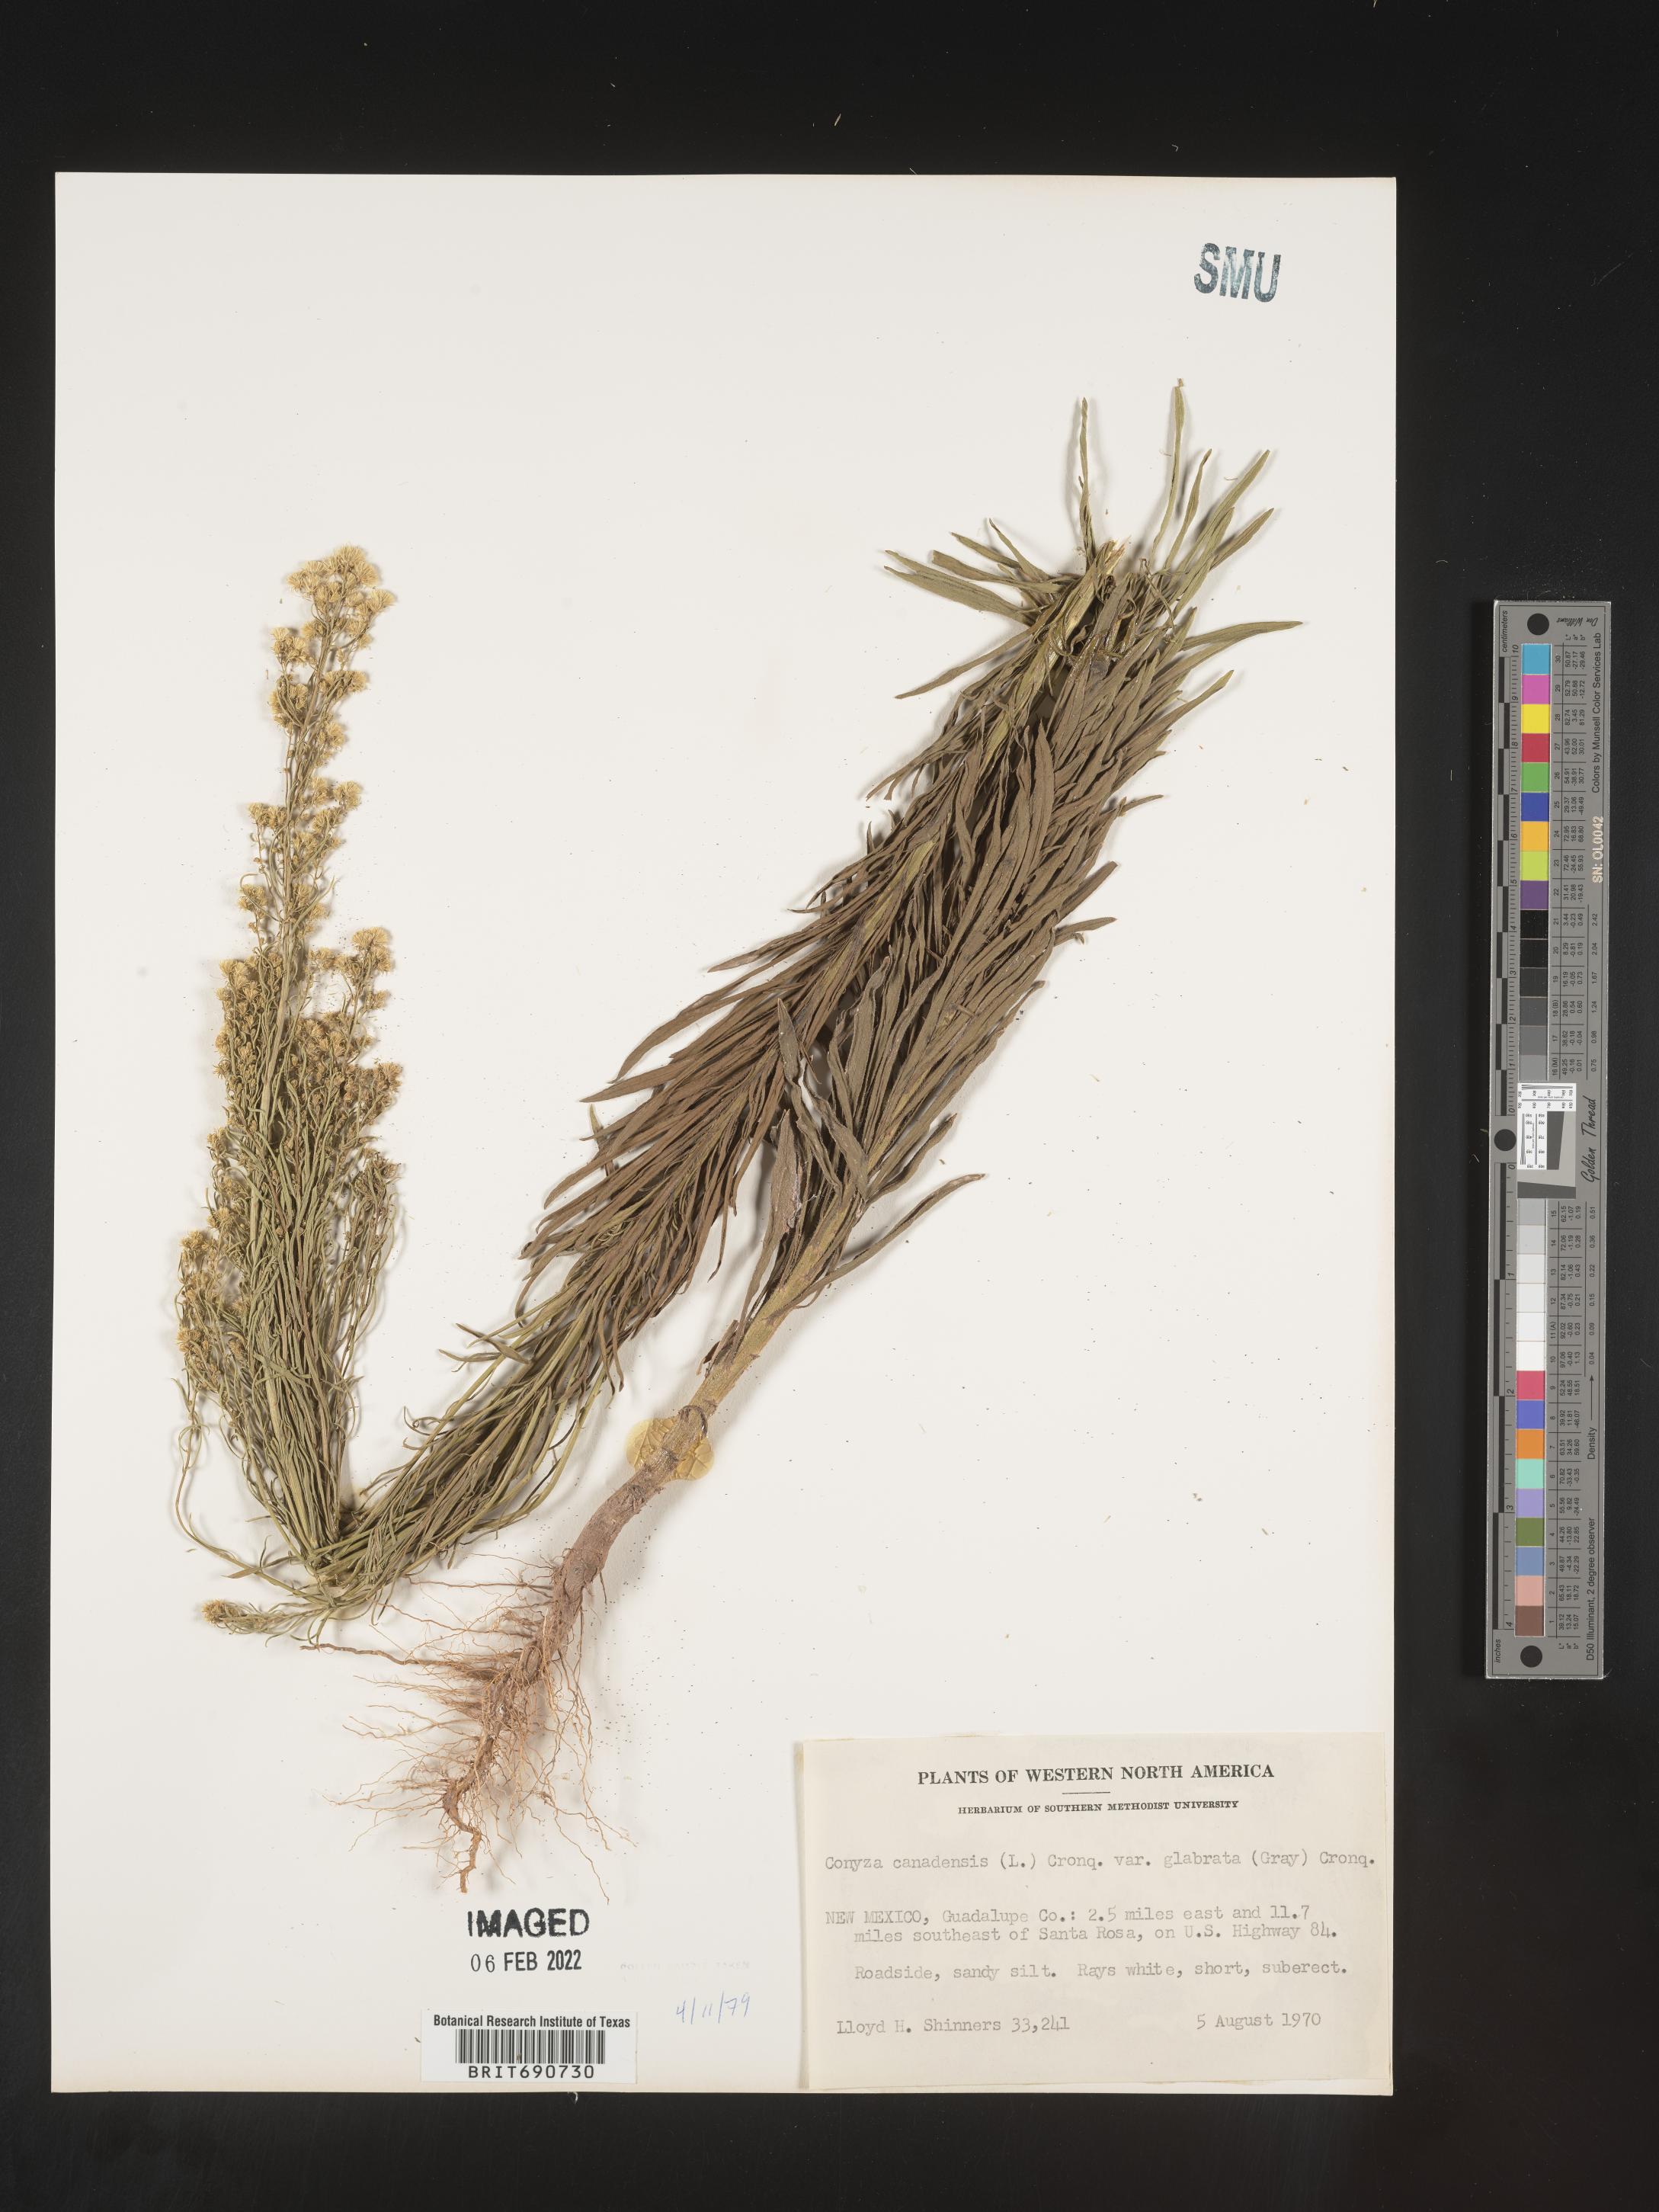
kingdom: Plantae
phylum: Tracheophyta
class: Magnoliopsida
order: Asterales
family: Asteraceae
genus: Erigeron
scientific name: Erigeron canadensis
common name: Canadian fleabane
